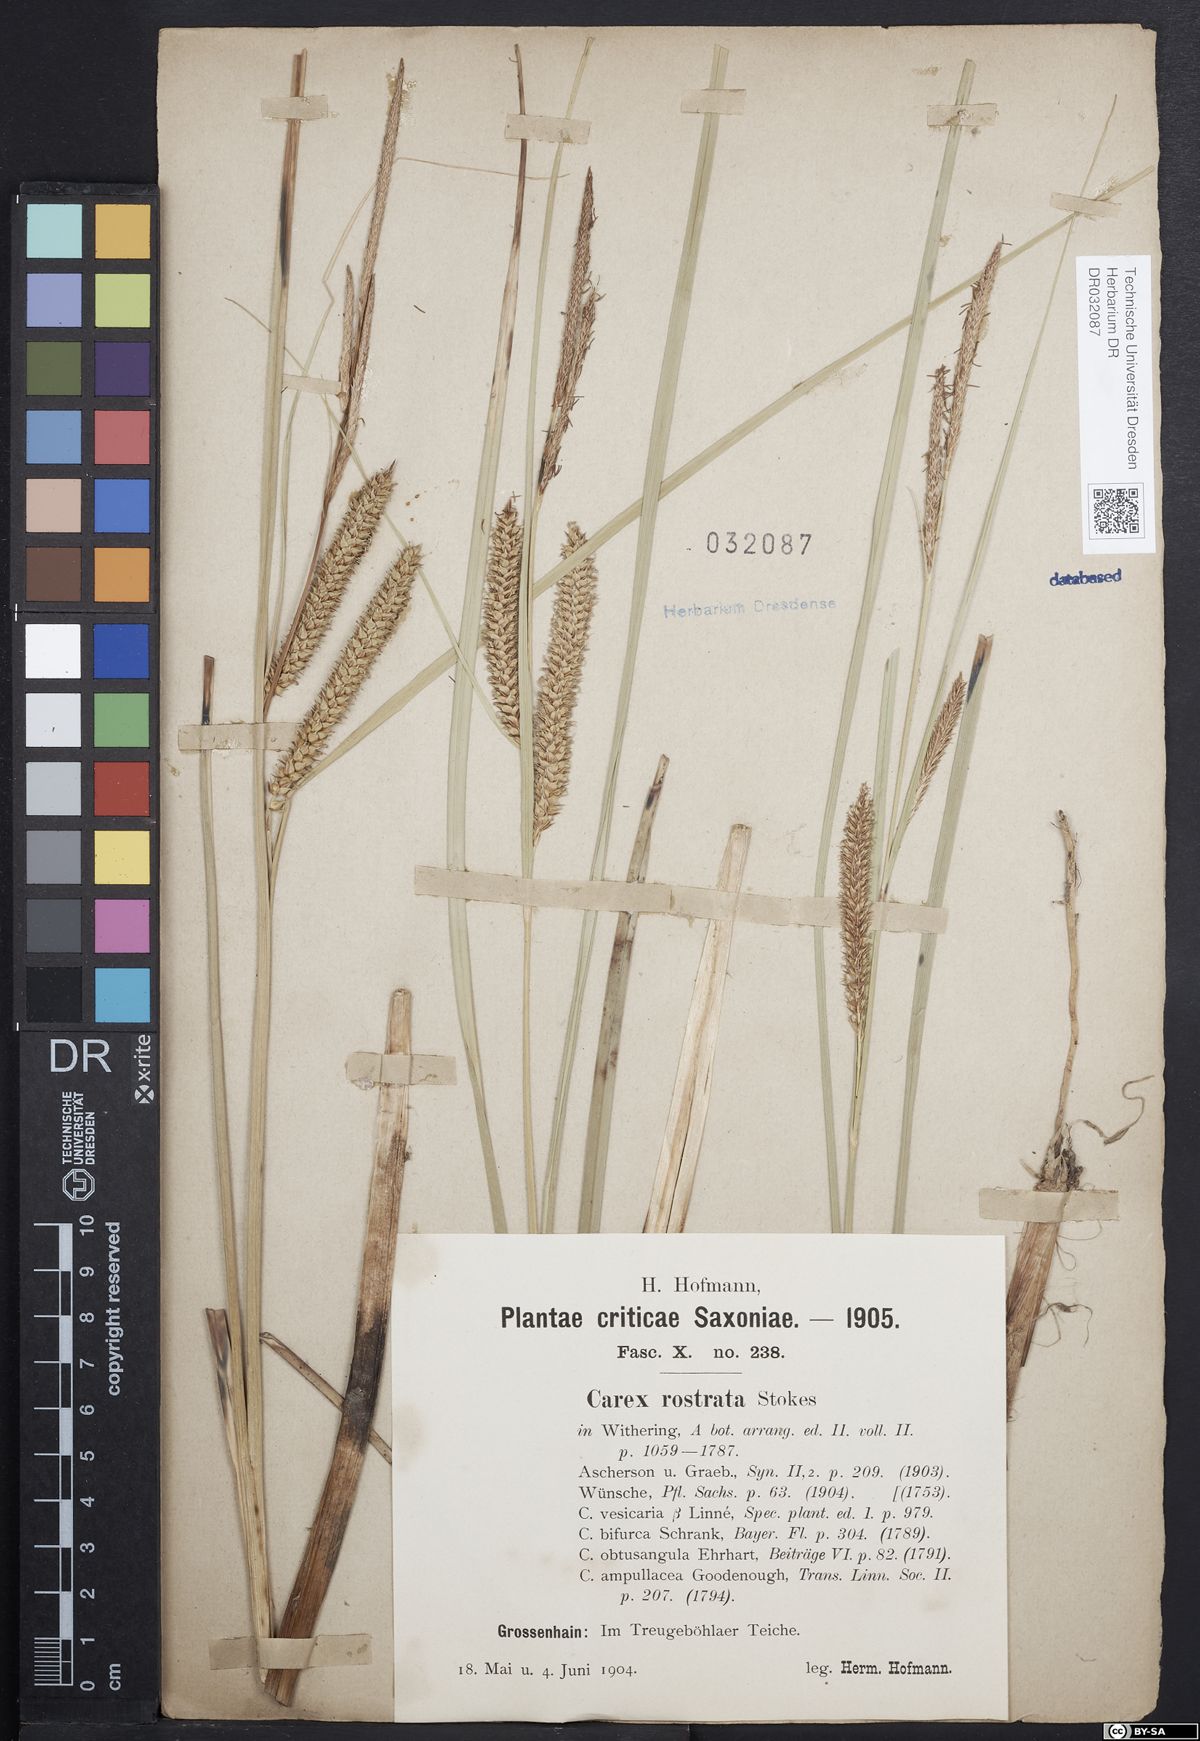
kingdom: Plantae
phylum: Tracheophyta
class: Liliopsida
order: Poales
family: Cyperaceae
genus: Carex
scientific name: Carex rostrata
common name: Bottle sedge
